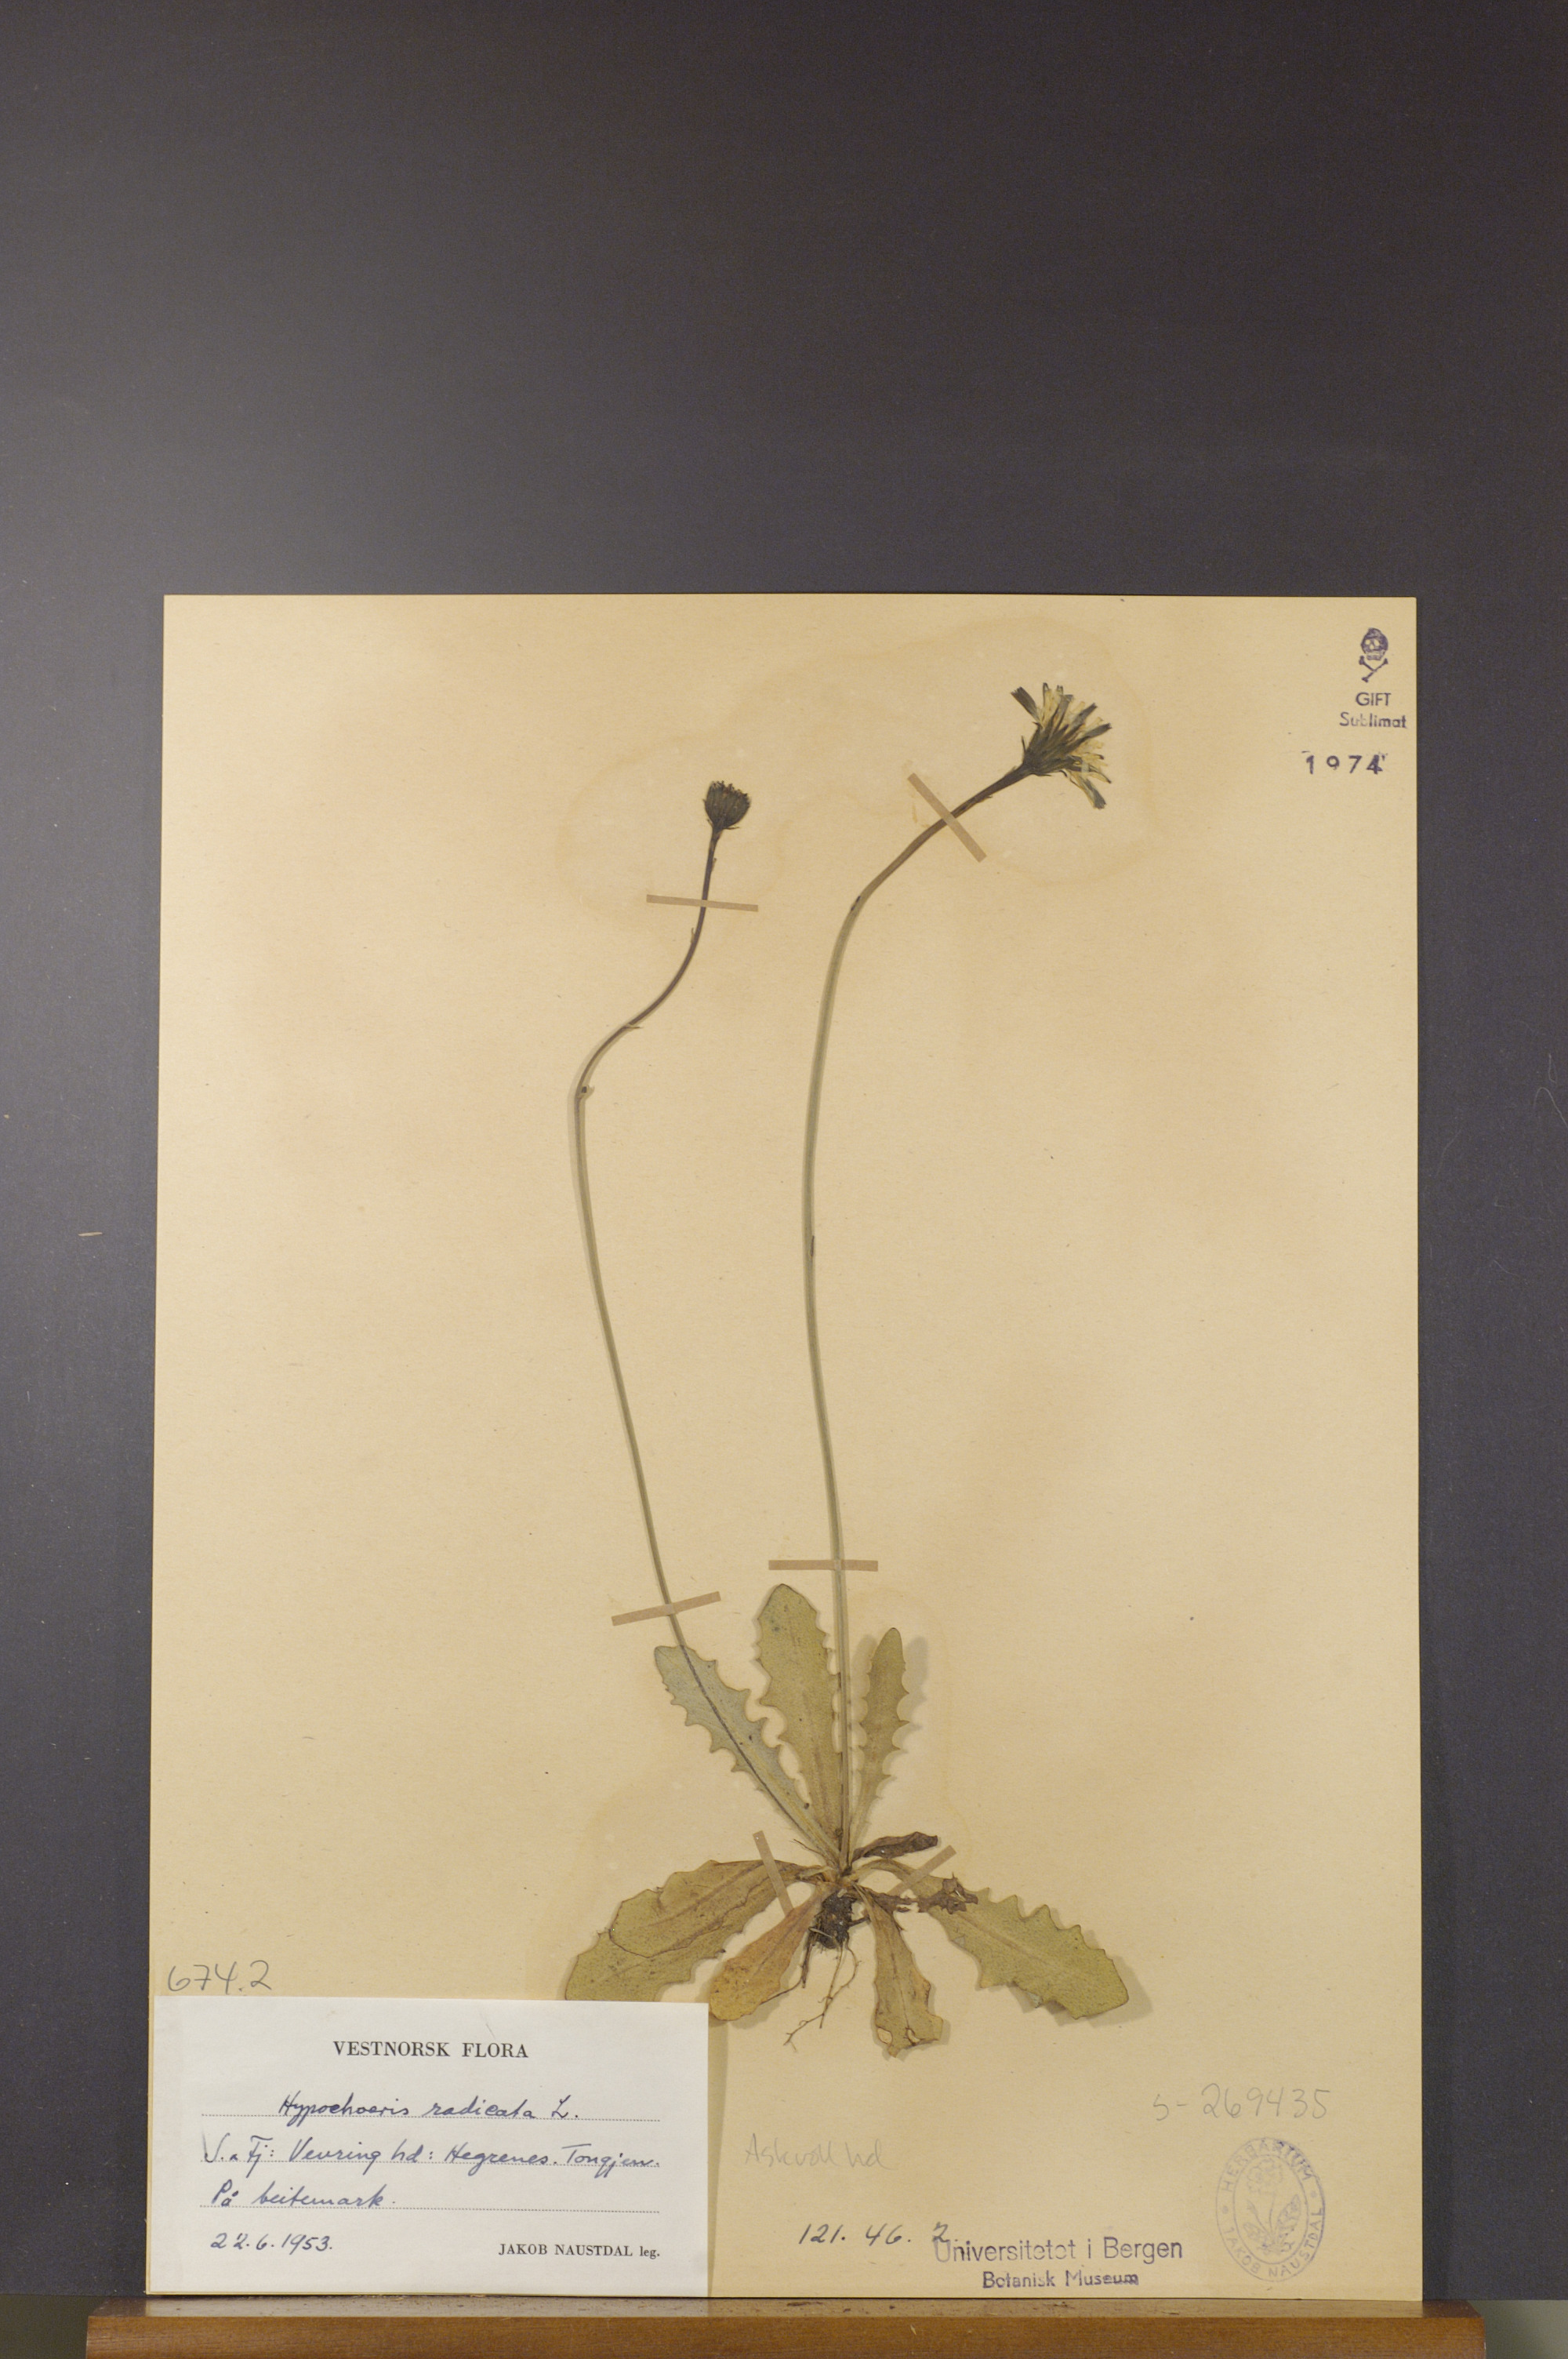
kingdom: Plantae
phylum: Tracheophyta
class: Magnoliopsida
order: Asterales
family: Asteraceae
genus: Hypochaeris
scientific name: Hypochaeris radicata
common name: Flatweed
